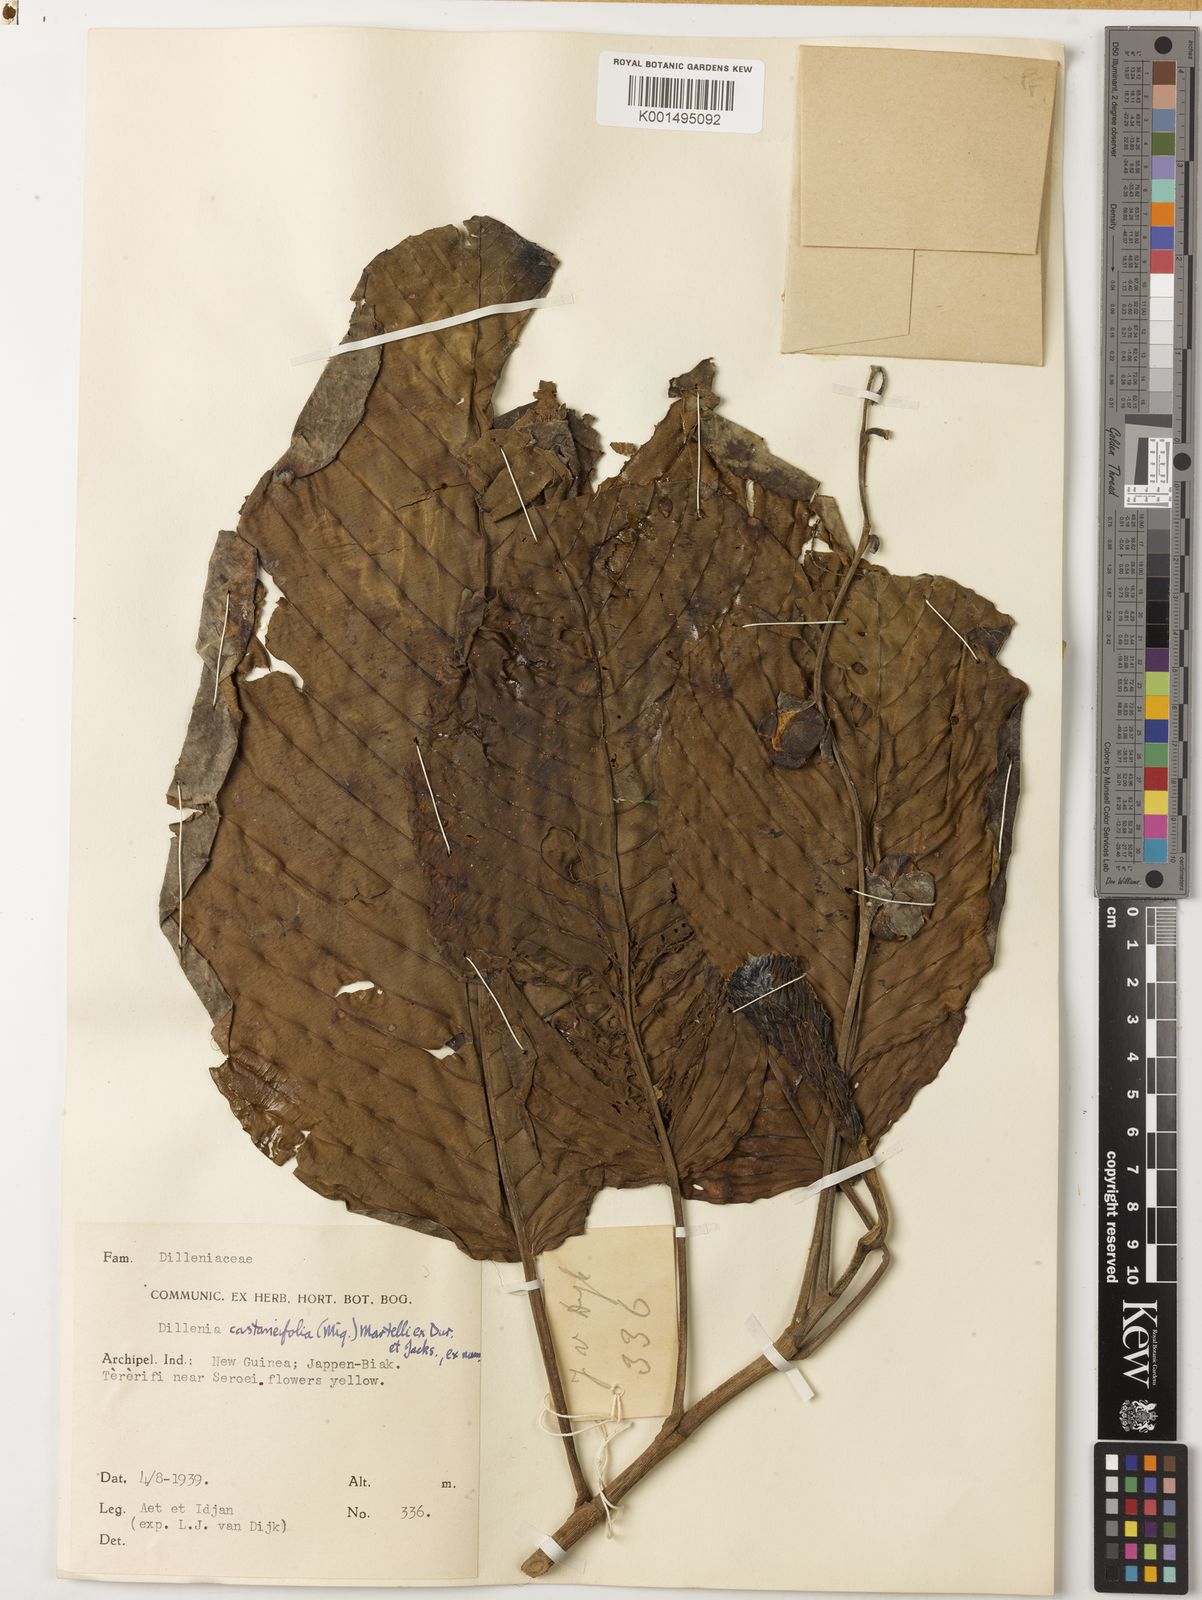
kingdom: Plantae
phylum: Tracheophyta
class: Magnoliopsida
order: Dilleniales
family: Dilleniaceae
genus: Dillenia
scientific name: Dillenia castaneifolia
